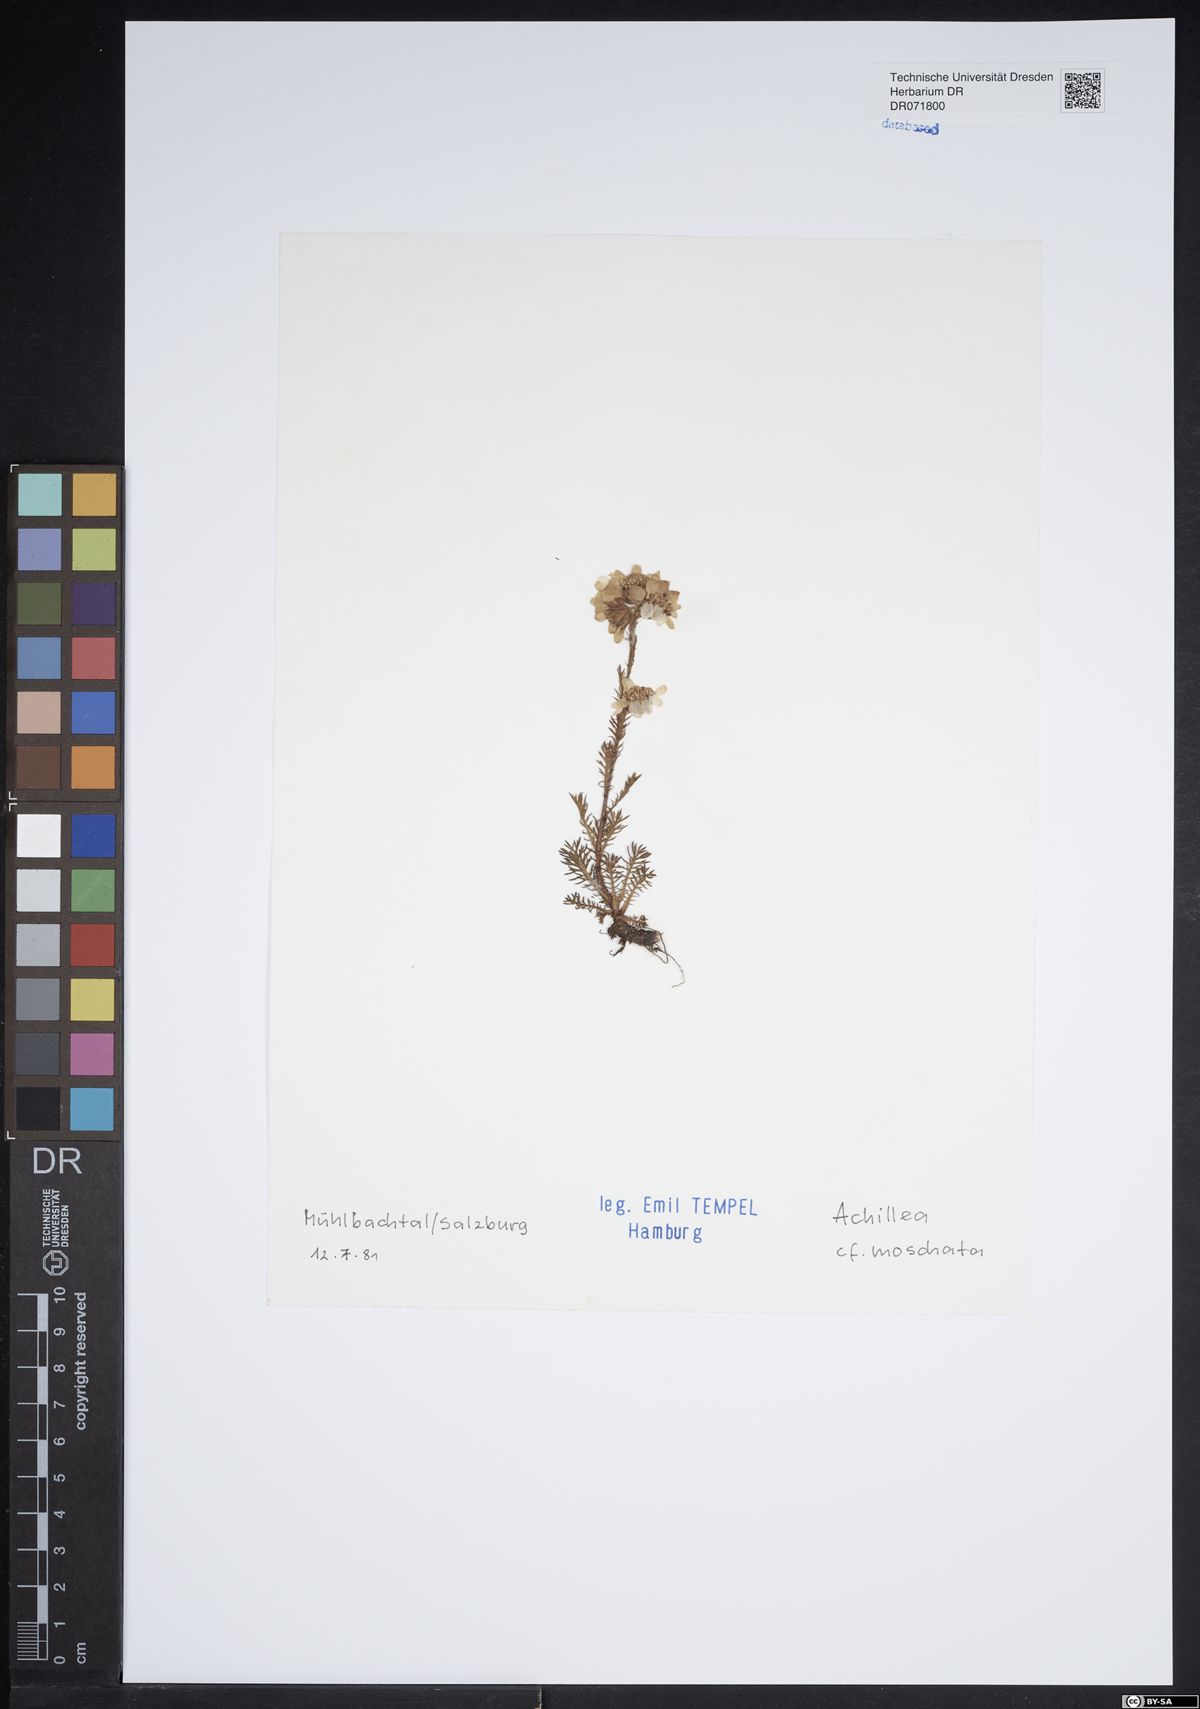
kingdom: Plantae
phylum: Tracheophyta
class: Magnoliopsida
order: Asterales
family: Asteraceae
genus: Achillea
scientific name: Achillea erba-rotta
